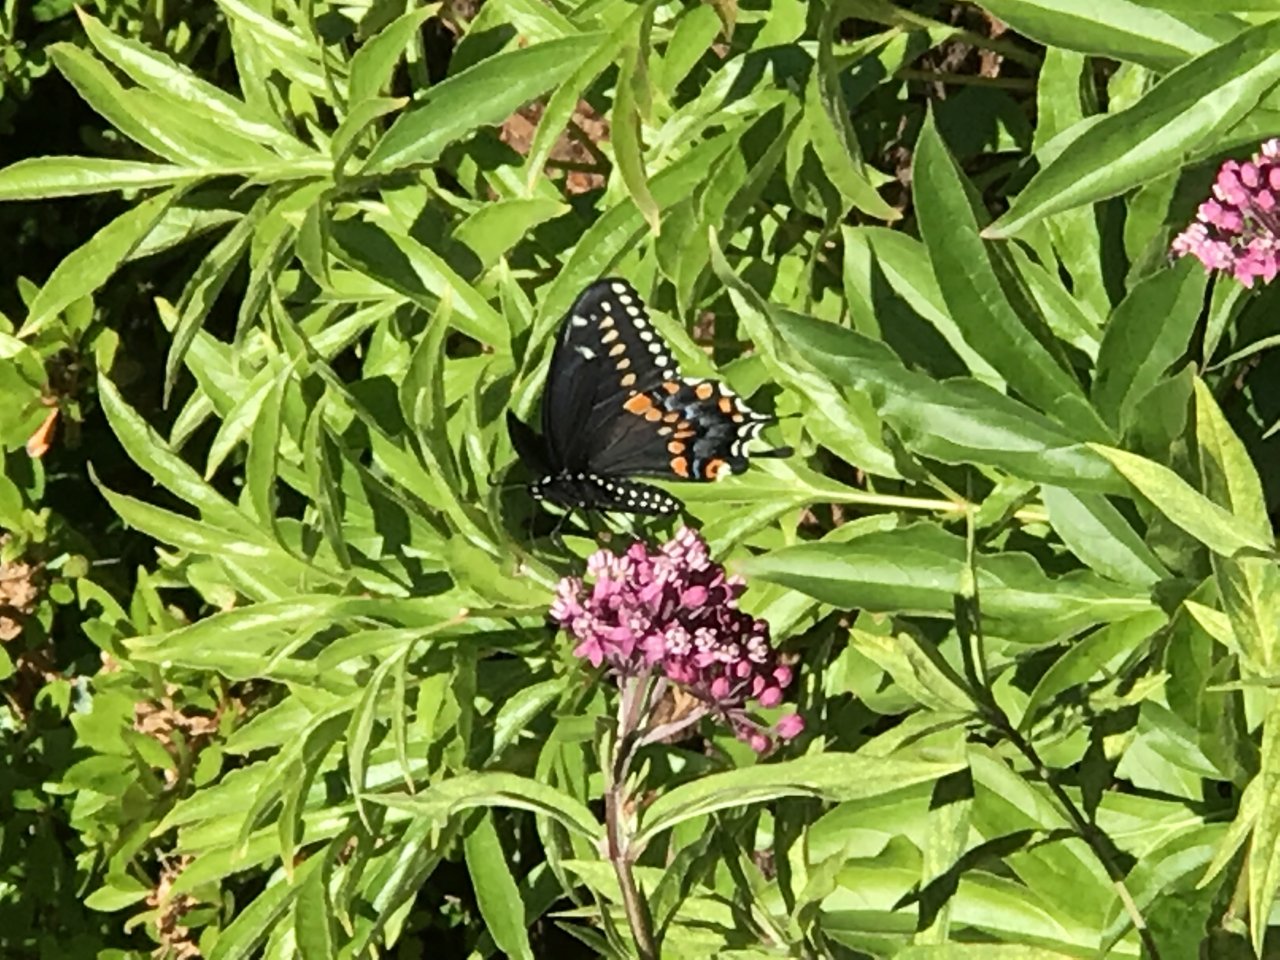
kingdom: Animalia
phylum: Arthropoda
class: Insecta
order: Lepidoptera
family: Papilionidae
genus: Papilio
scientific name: Papilio polyxenes
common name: Black Swallowtail
